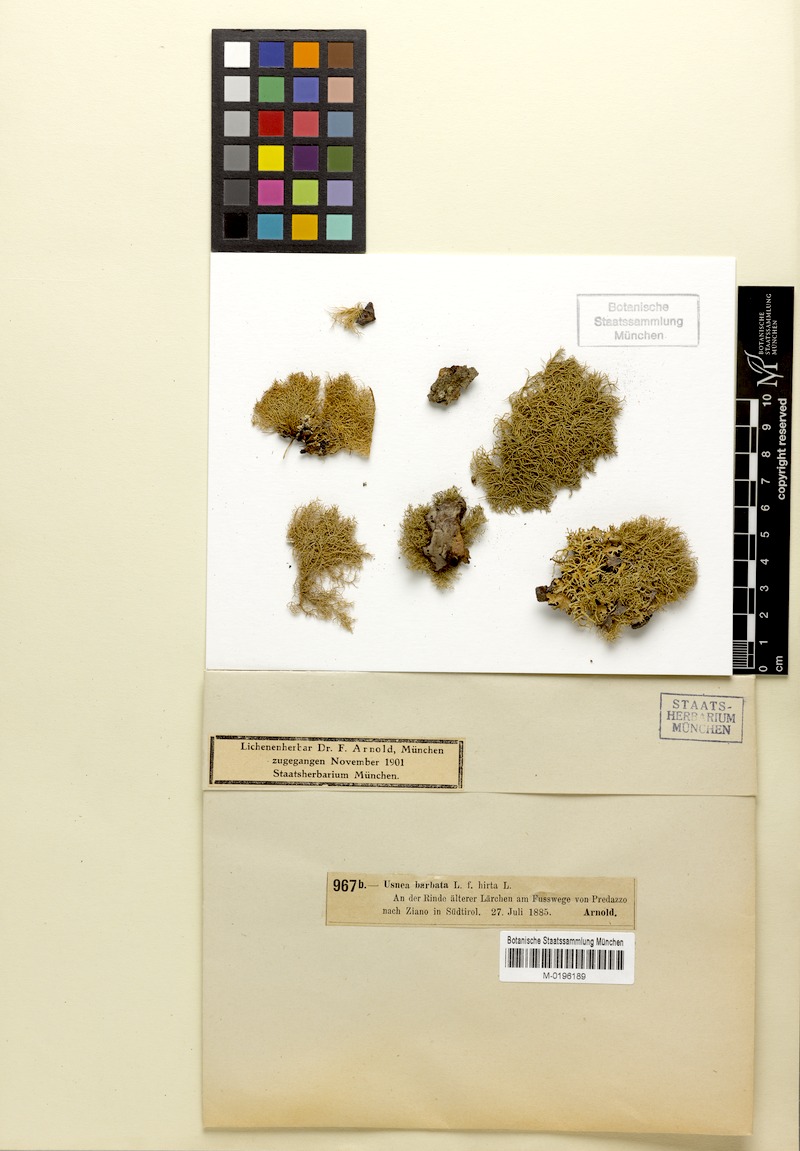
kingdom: Fungi
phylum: Ascomycota
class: Lecanoromycetes
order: Lecanorales
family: Parmeliaceae
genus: Usnea
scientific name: Usnea hirta
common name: Bristly beard lichen
